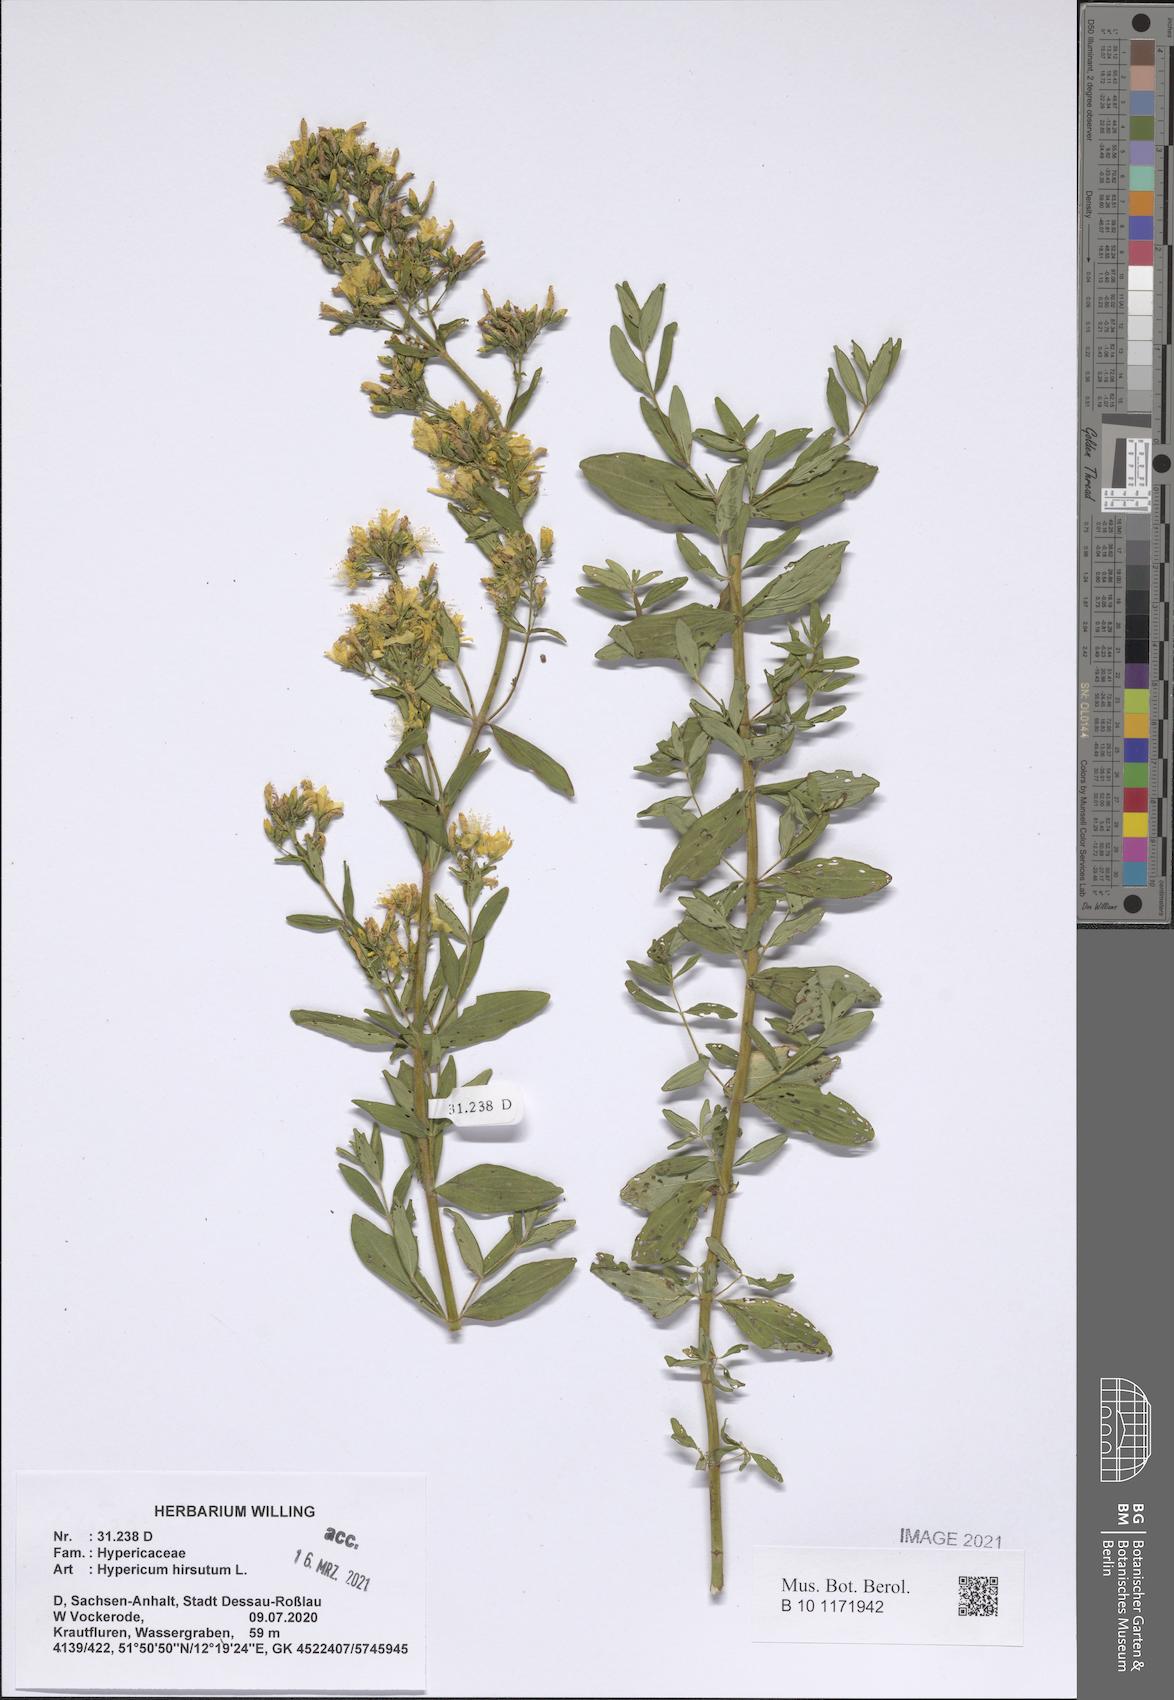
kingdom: Plantae
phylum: Tracheophyta
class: Magnoliopsida
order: Malpighiales
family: Hypericaceae
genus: Hypericum
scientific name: Hypericum hirsutum
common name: Hairy st. john's-wort
